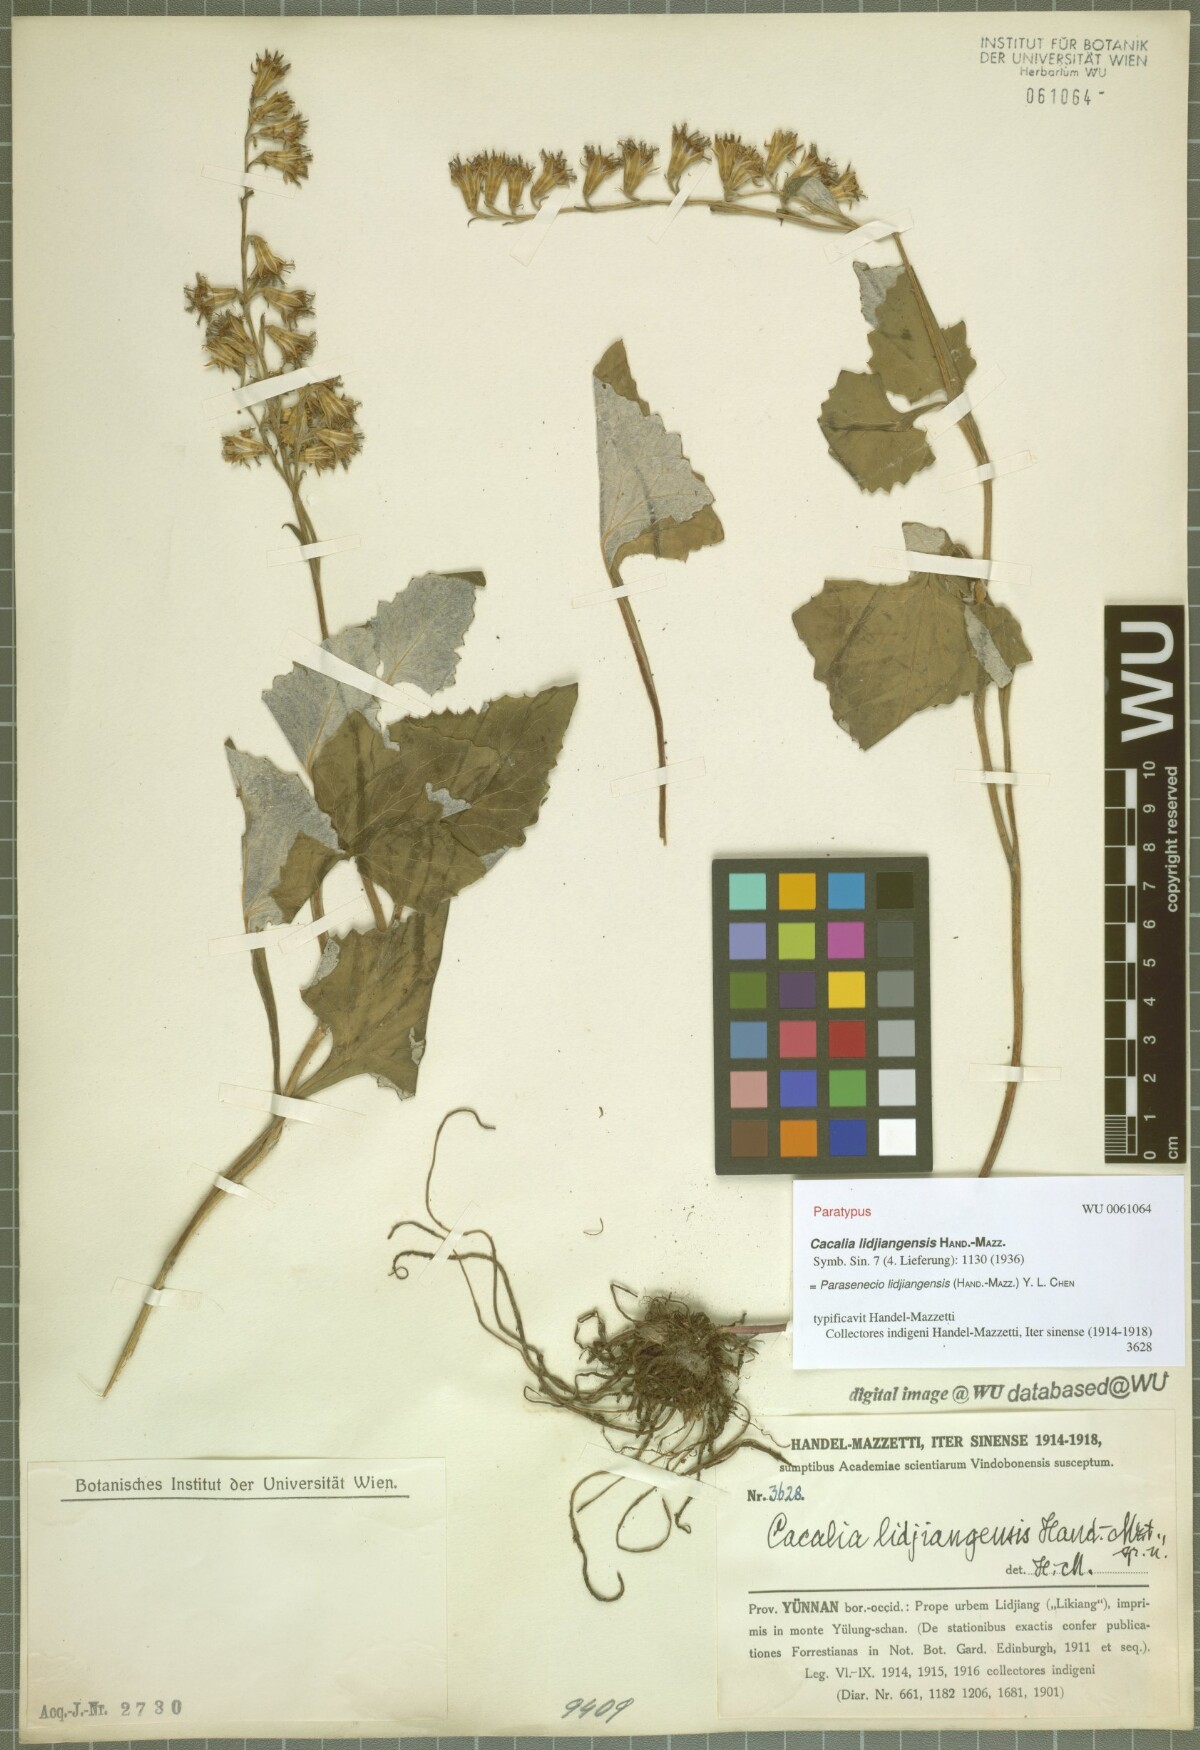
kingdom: Plantae
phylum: Tracheophyta
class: Magnoliopsida
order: Asterales
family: Asteraceae
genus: Parasenecio
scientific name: Parasenecio lidjiangensis
